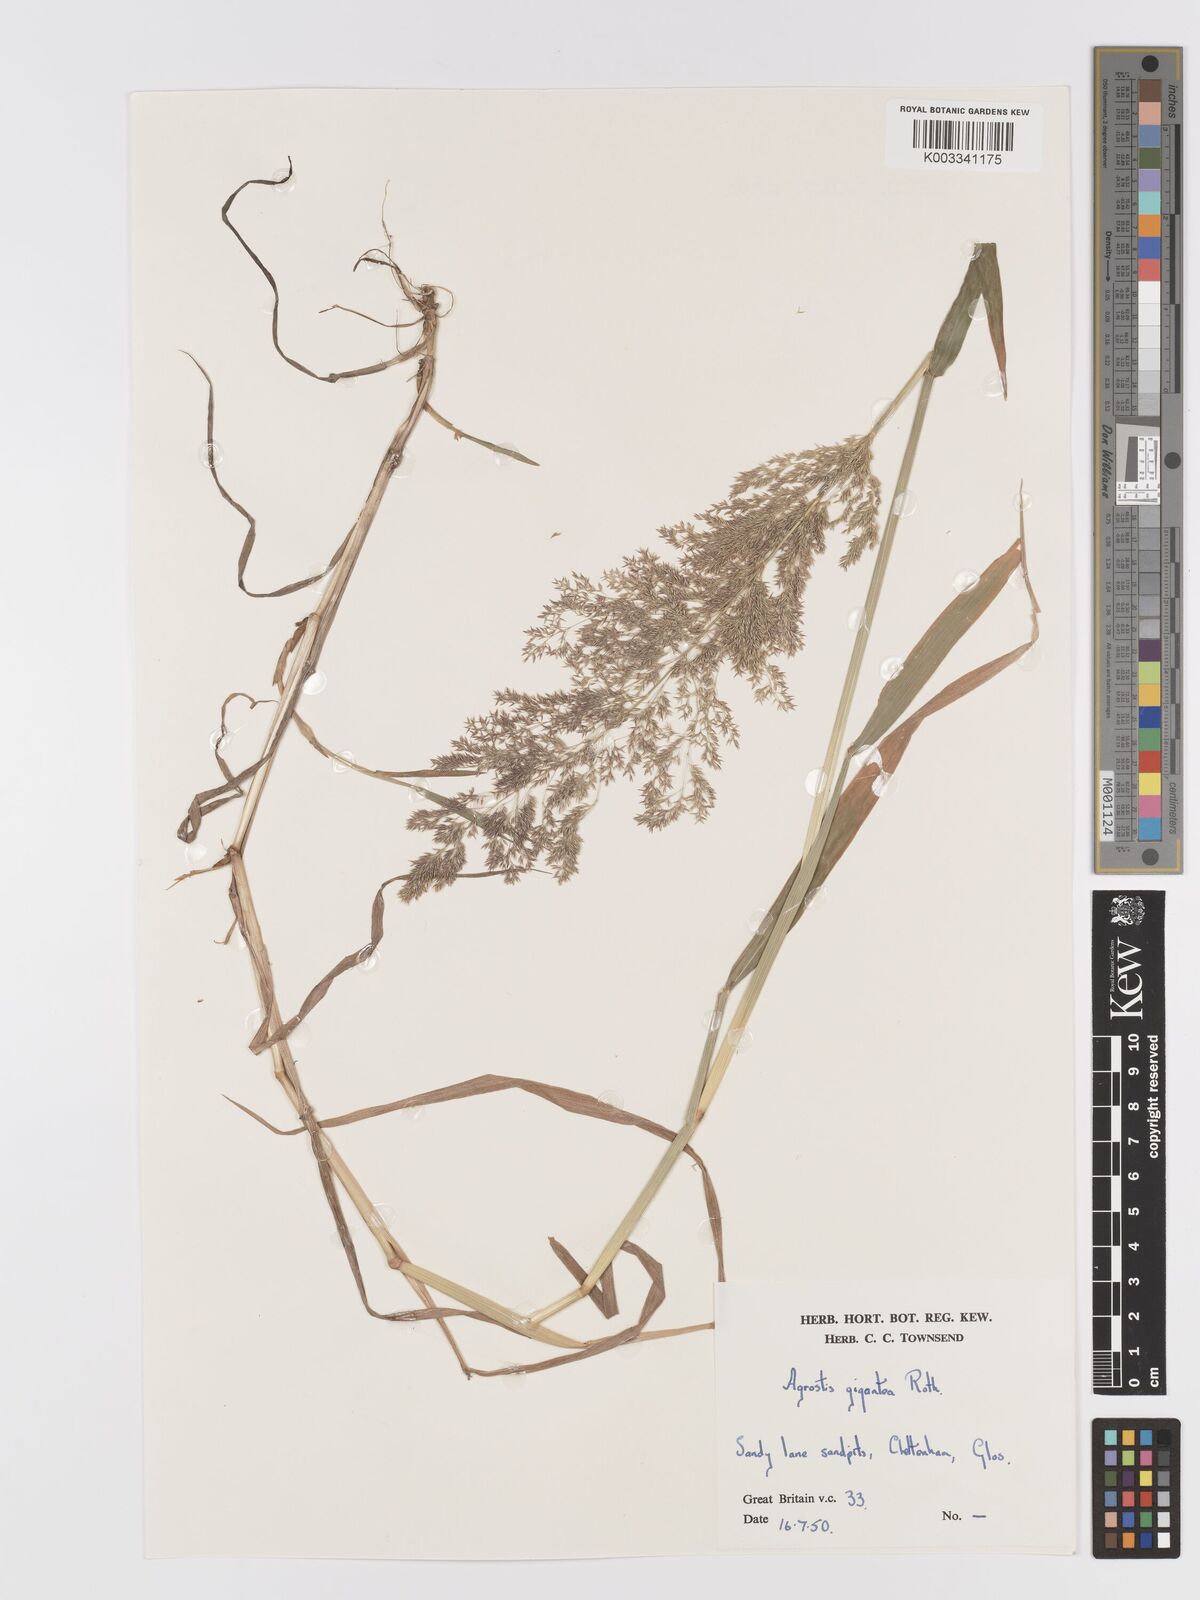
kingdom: Plantae
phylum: Tracheophyta
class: Liliopsida
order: Poales
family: Poaceae
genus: Agrostis
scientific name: Agrostis gigantea
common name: Black bent
